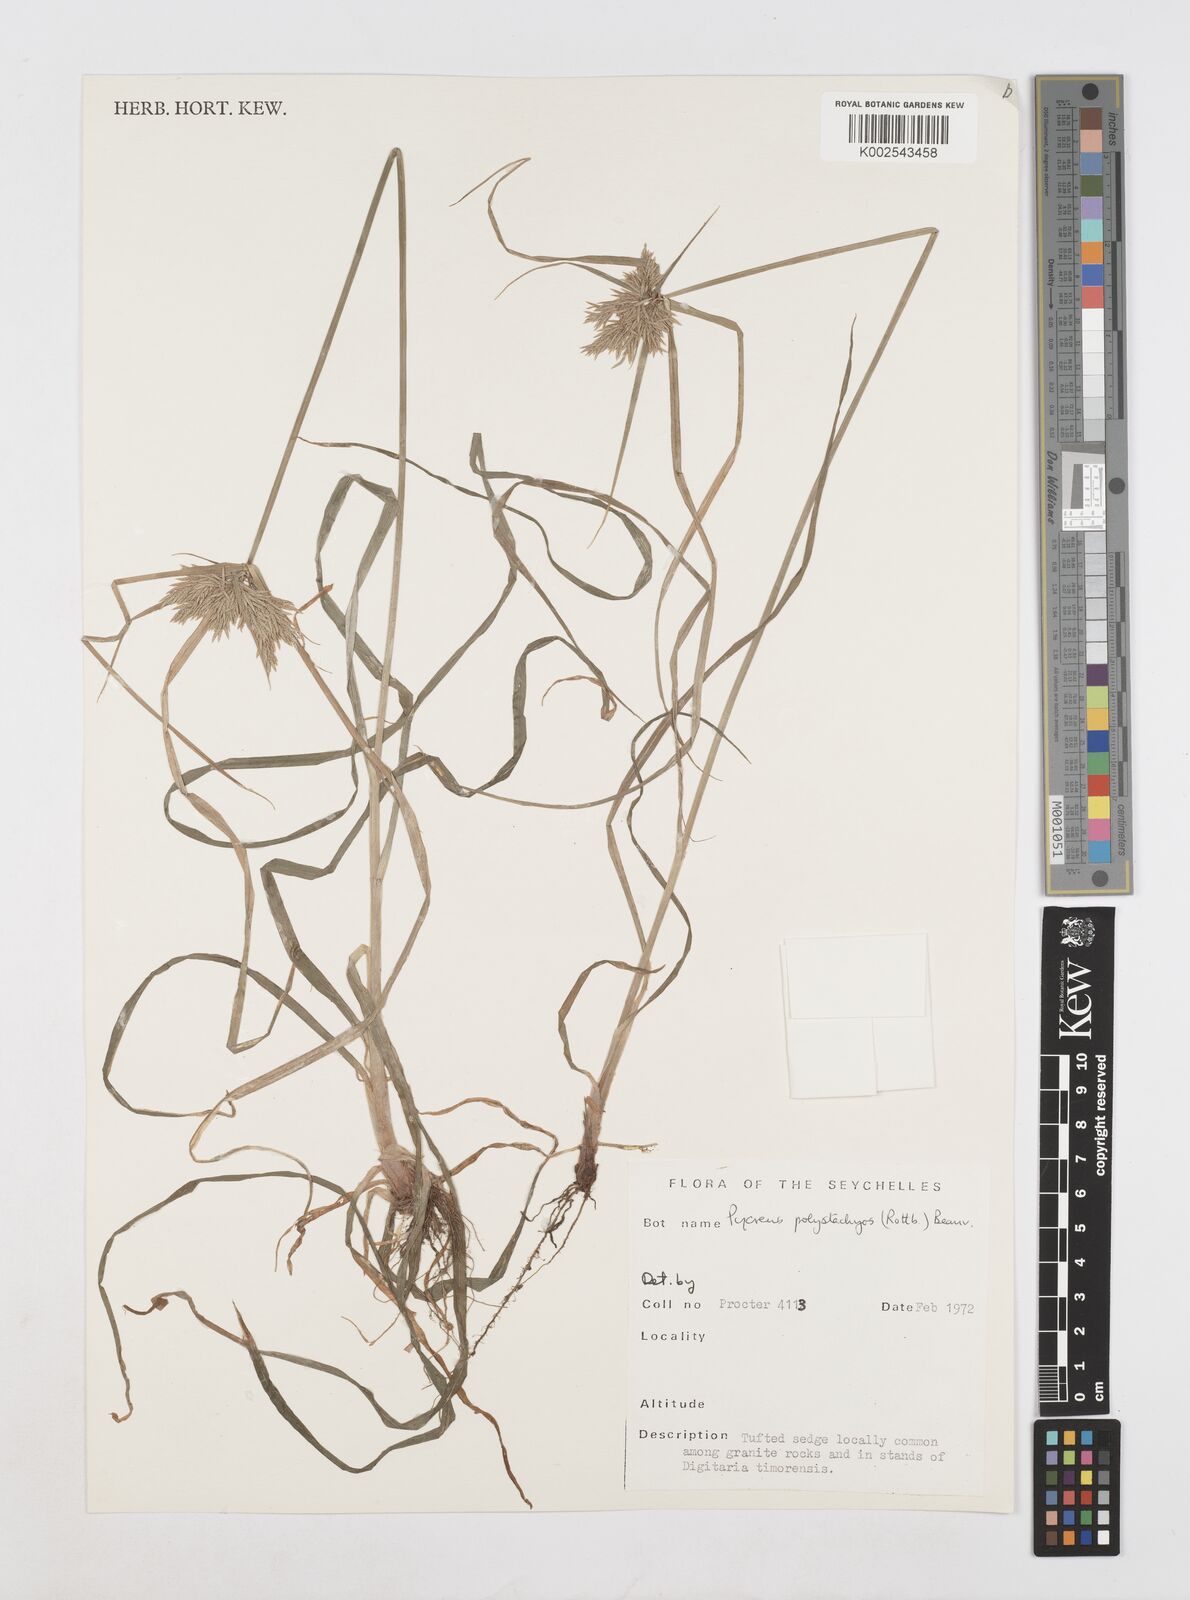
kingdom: Plantae
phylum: Tracheophyta
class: Liliopsida
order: Poales
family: Cyperaceae
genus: Cyperus
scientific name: Cyperus polystachyos
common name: Bunchy flat sedge
